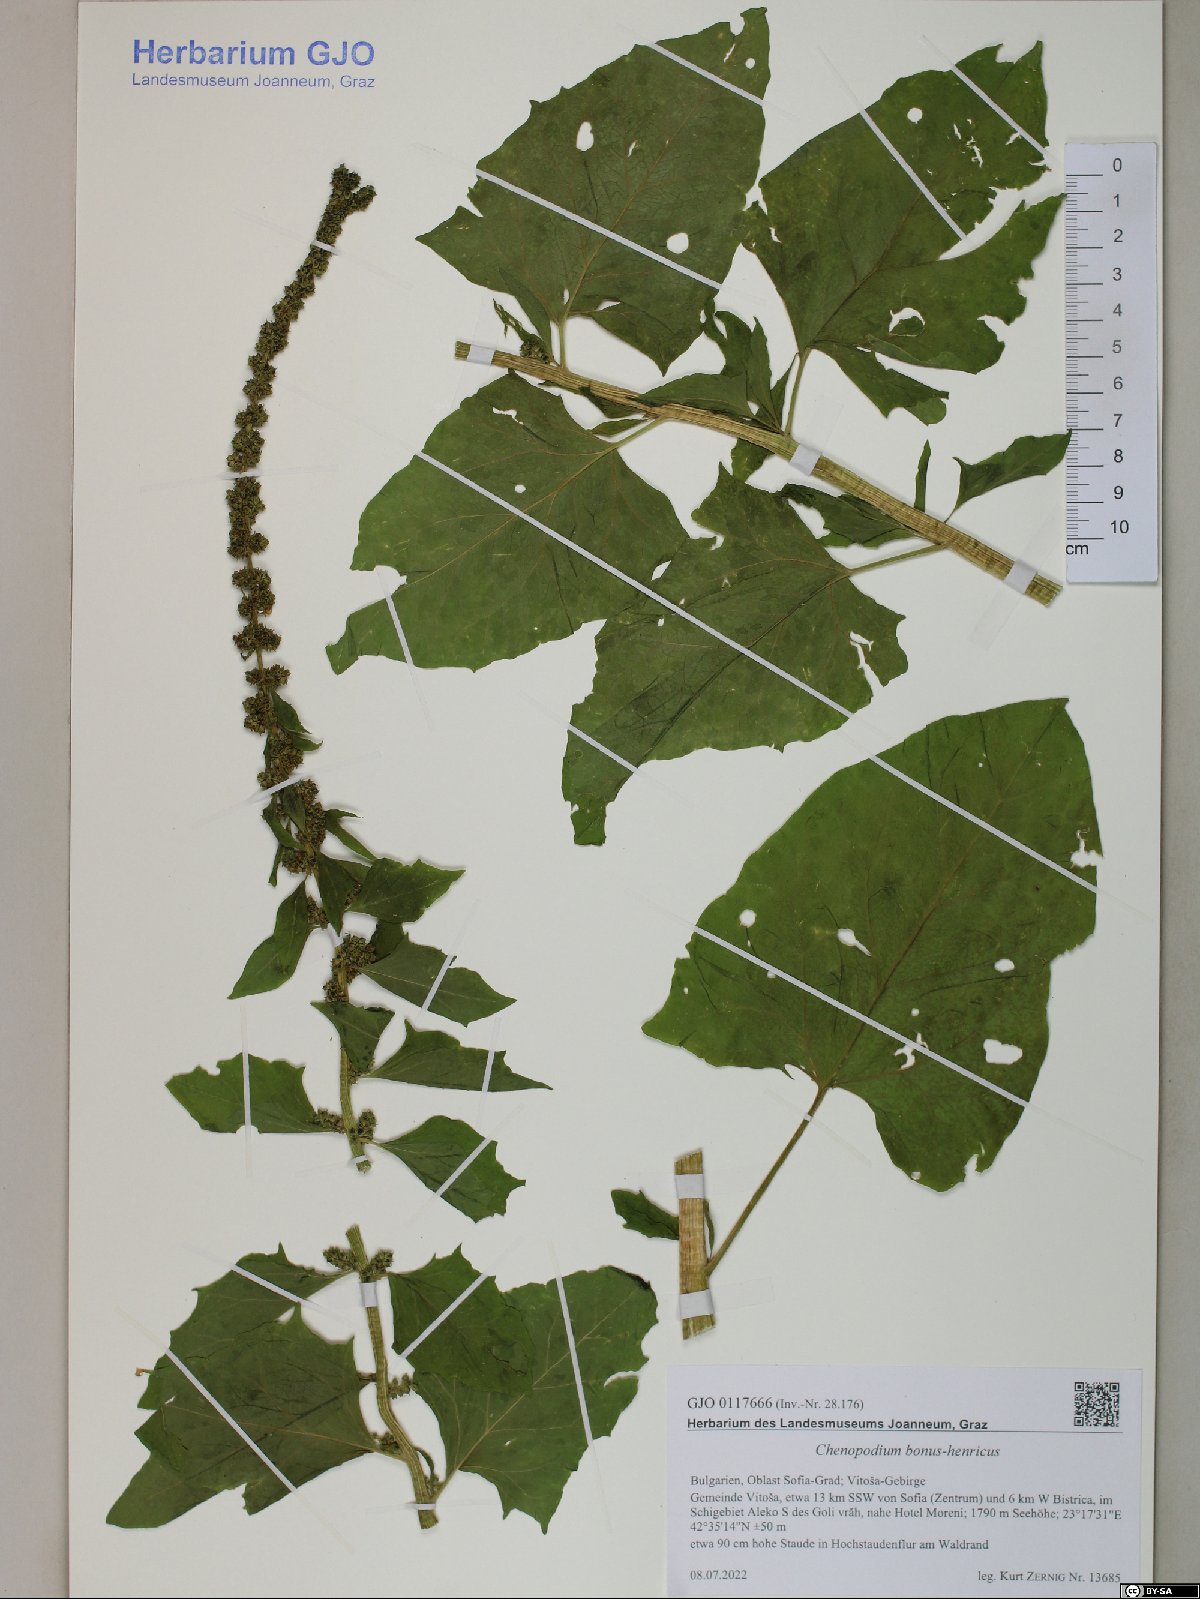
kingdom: Plantae
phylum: Tracheophyta
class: Magnoliopsida
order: Caryophyllales
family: Amaranthaceae
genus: Blitum
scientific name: Blitum bonus-henricus
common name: Good king henry
